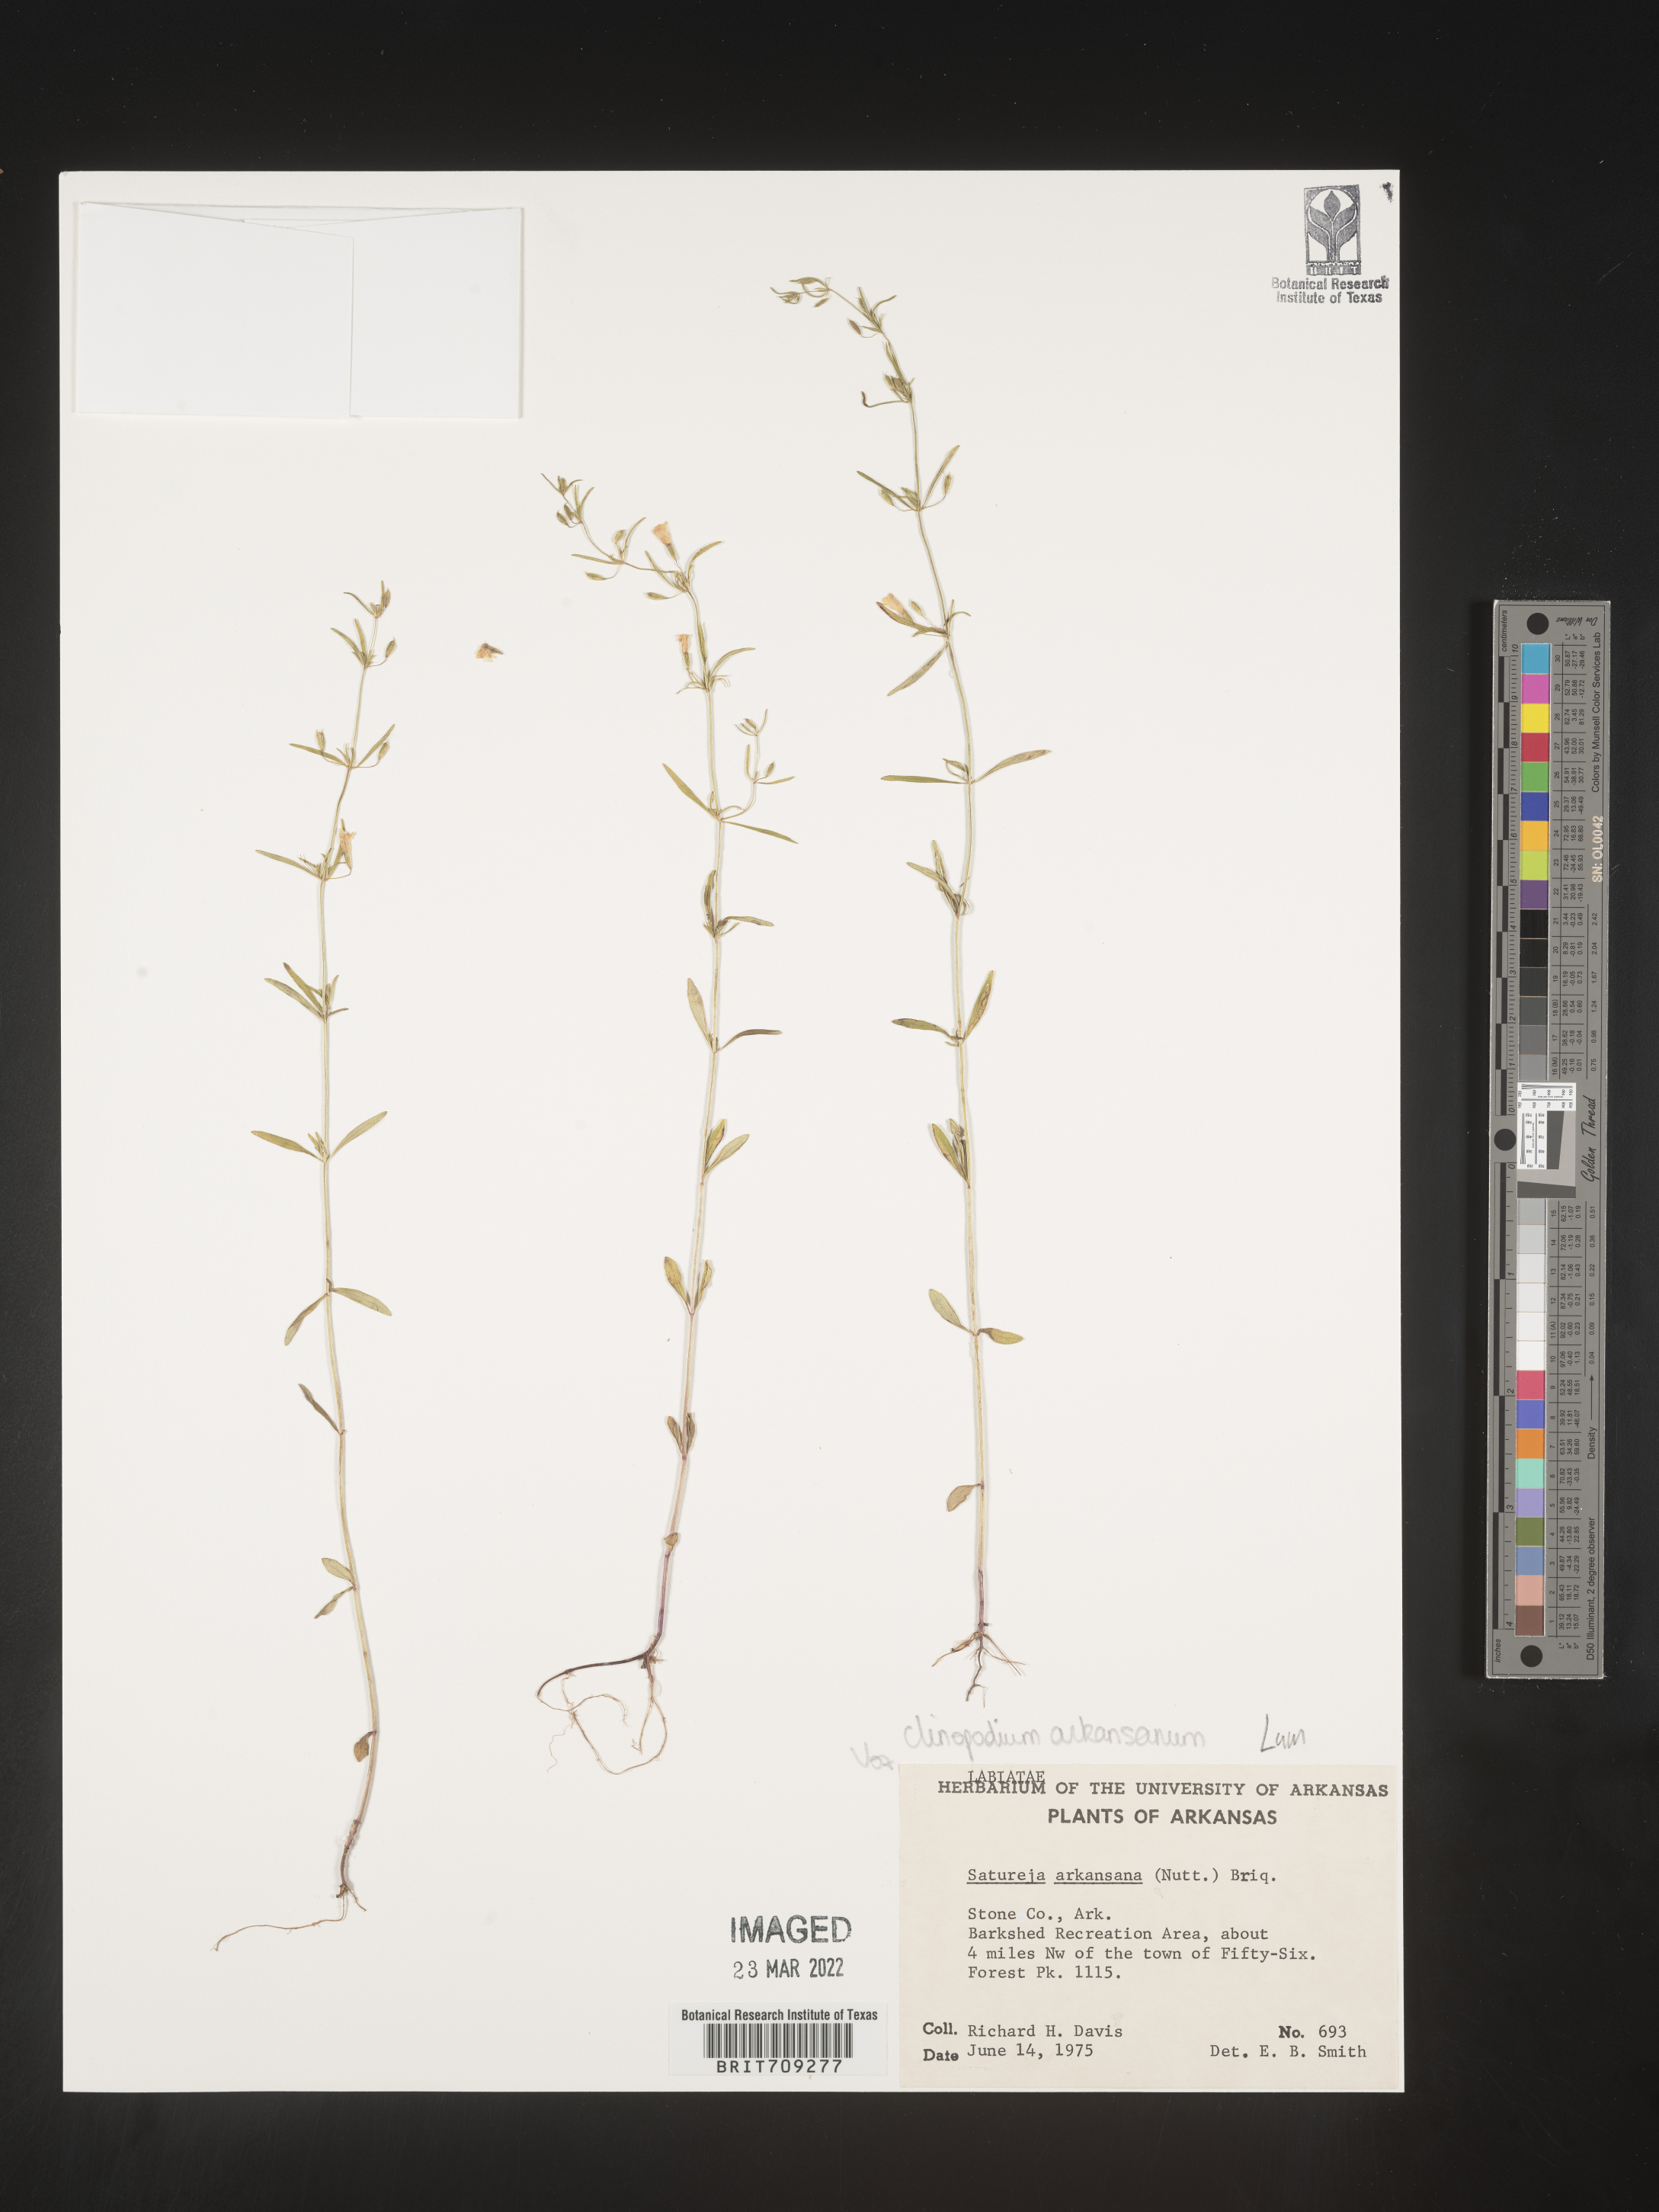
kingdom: Plantae
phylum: Tracheophyta
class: Magnoliopsida
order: Lamiales
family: Lamiaceae
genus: Clinopodium
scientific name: Clinopodium
